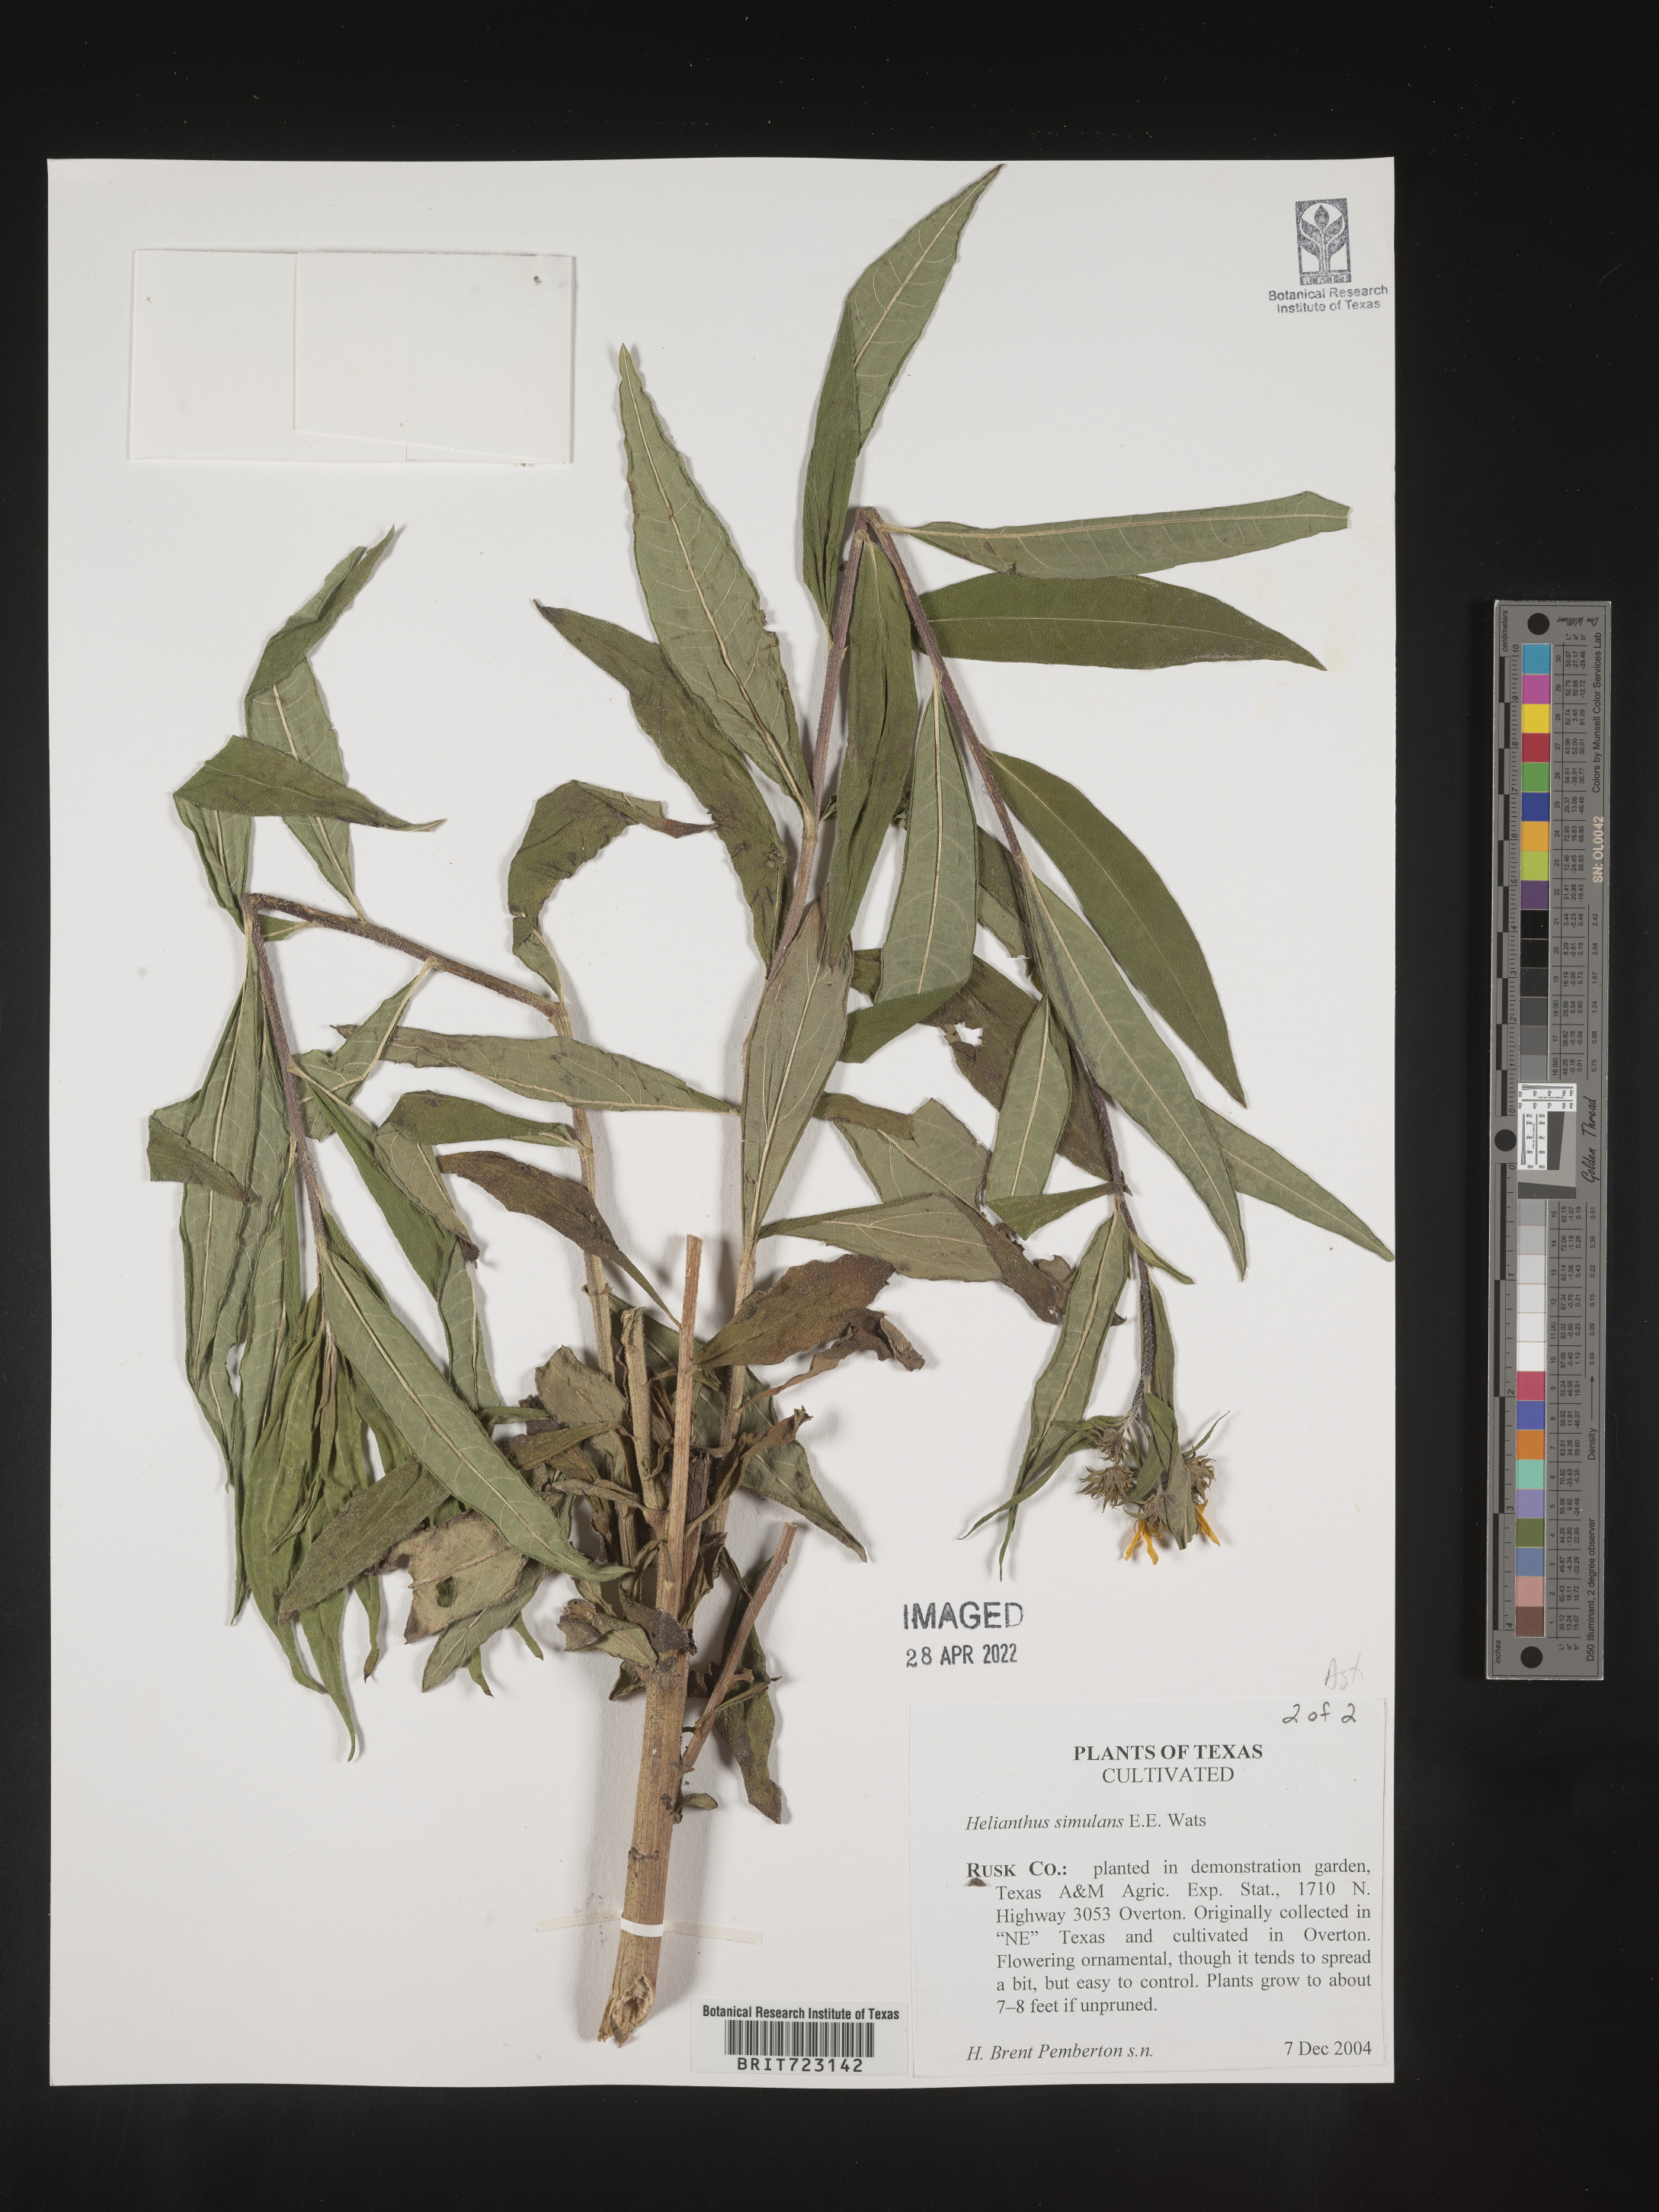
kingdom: Plantae
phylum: Tracheophyta
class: Magnoliopsida
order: Asterales
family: Asteraceae
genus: Helianthus
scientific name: Helianthus
